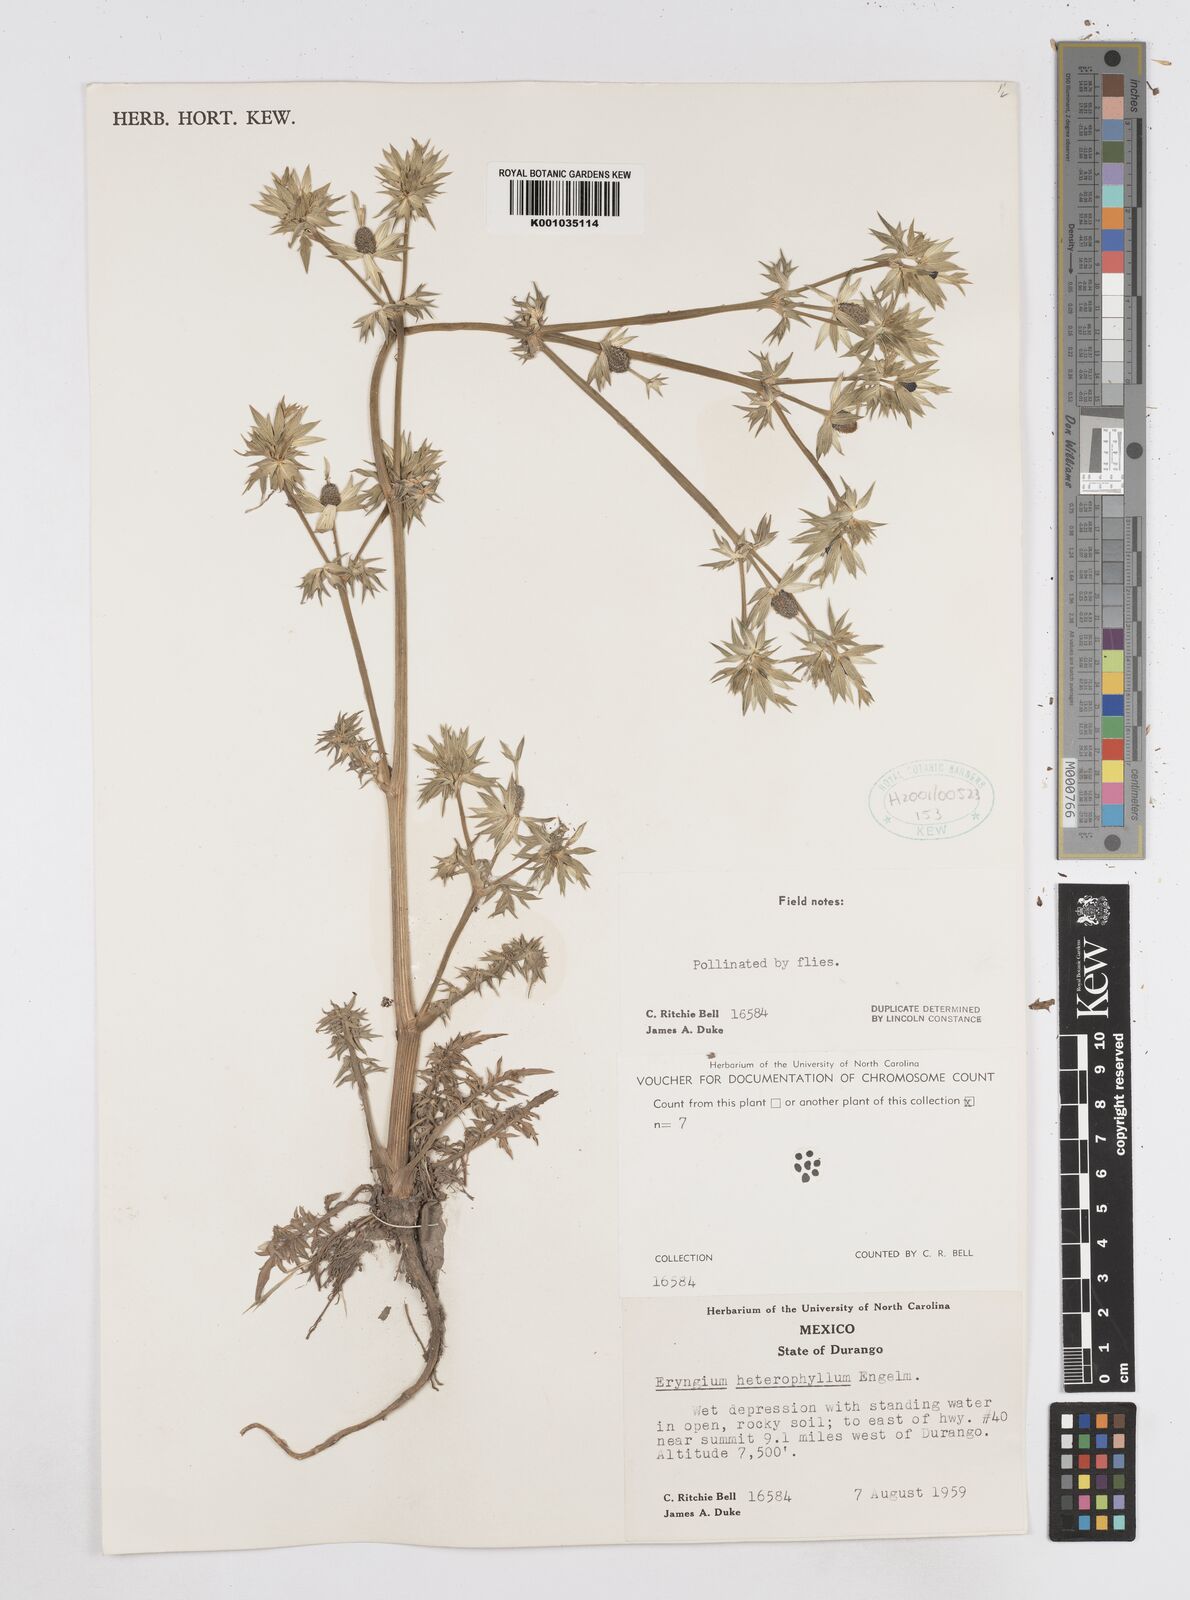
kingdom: Plantae
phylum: Tracheophyta
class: Magnoliopsida
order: Apiales
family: Apiaceae
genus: Eryngium
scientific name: Eryngium comosum
